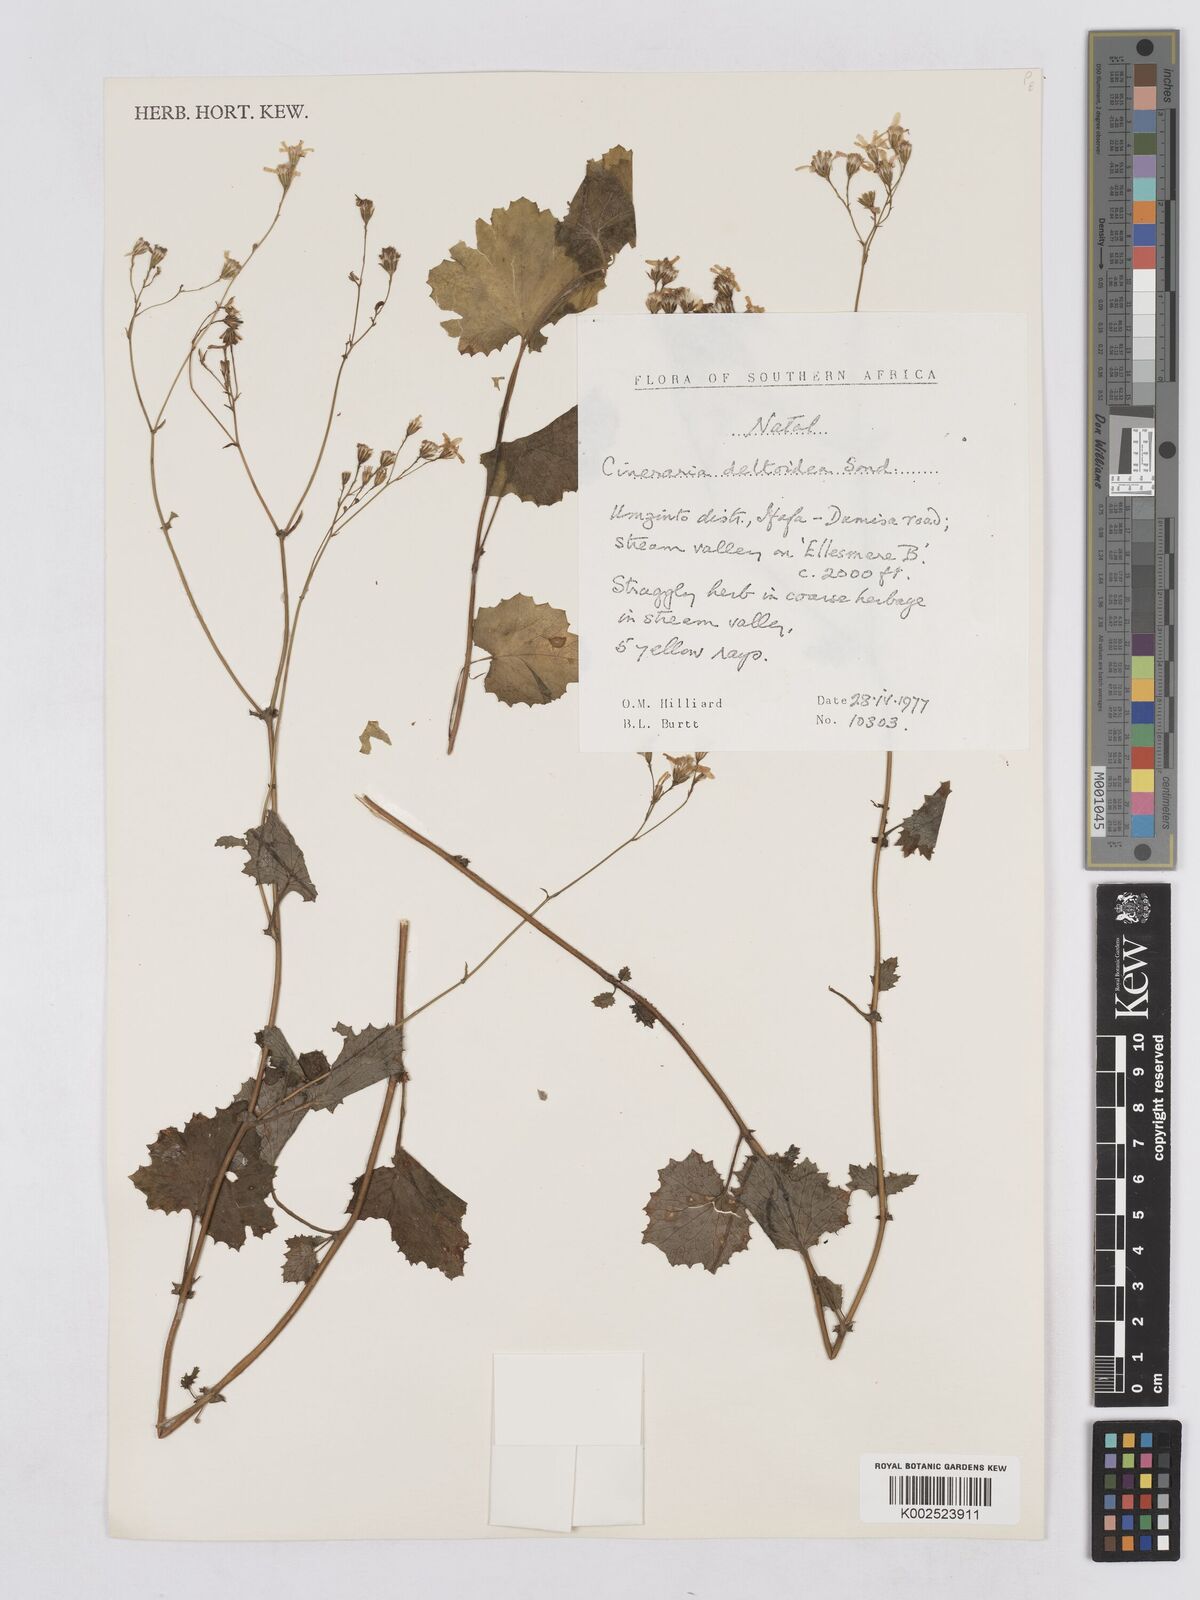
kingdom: Plantae
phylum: Tracheophyta
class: Magnoliopsida
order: Asterales
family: Asteraceae
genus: Senecio
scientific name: Senecio deltoideus
